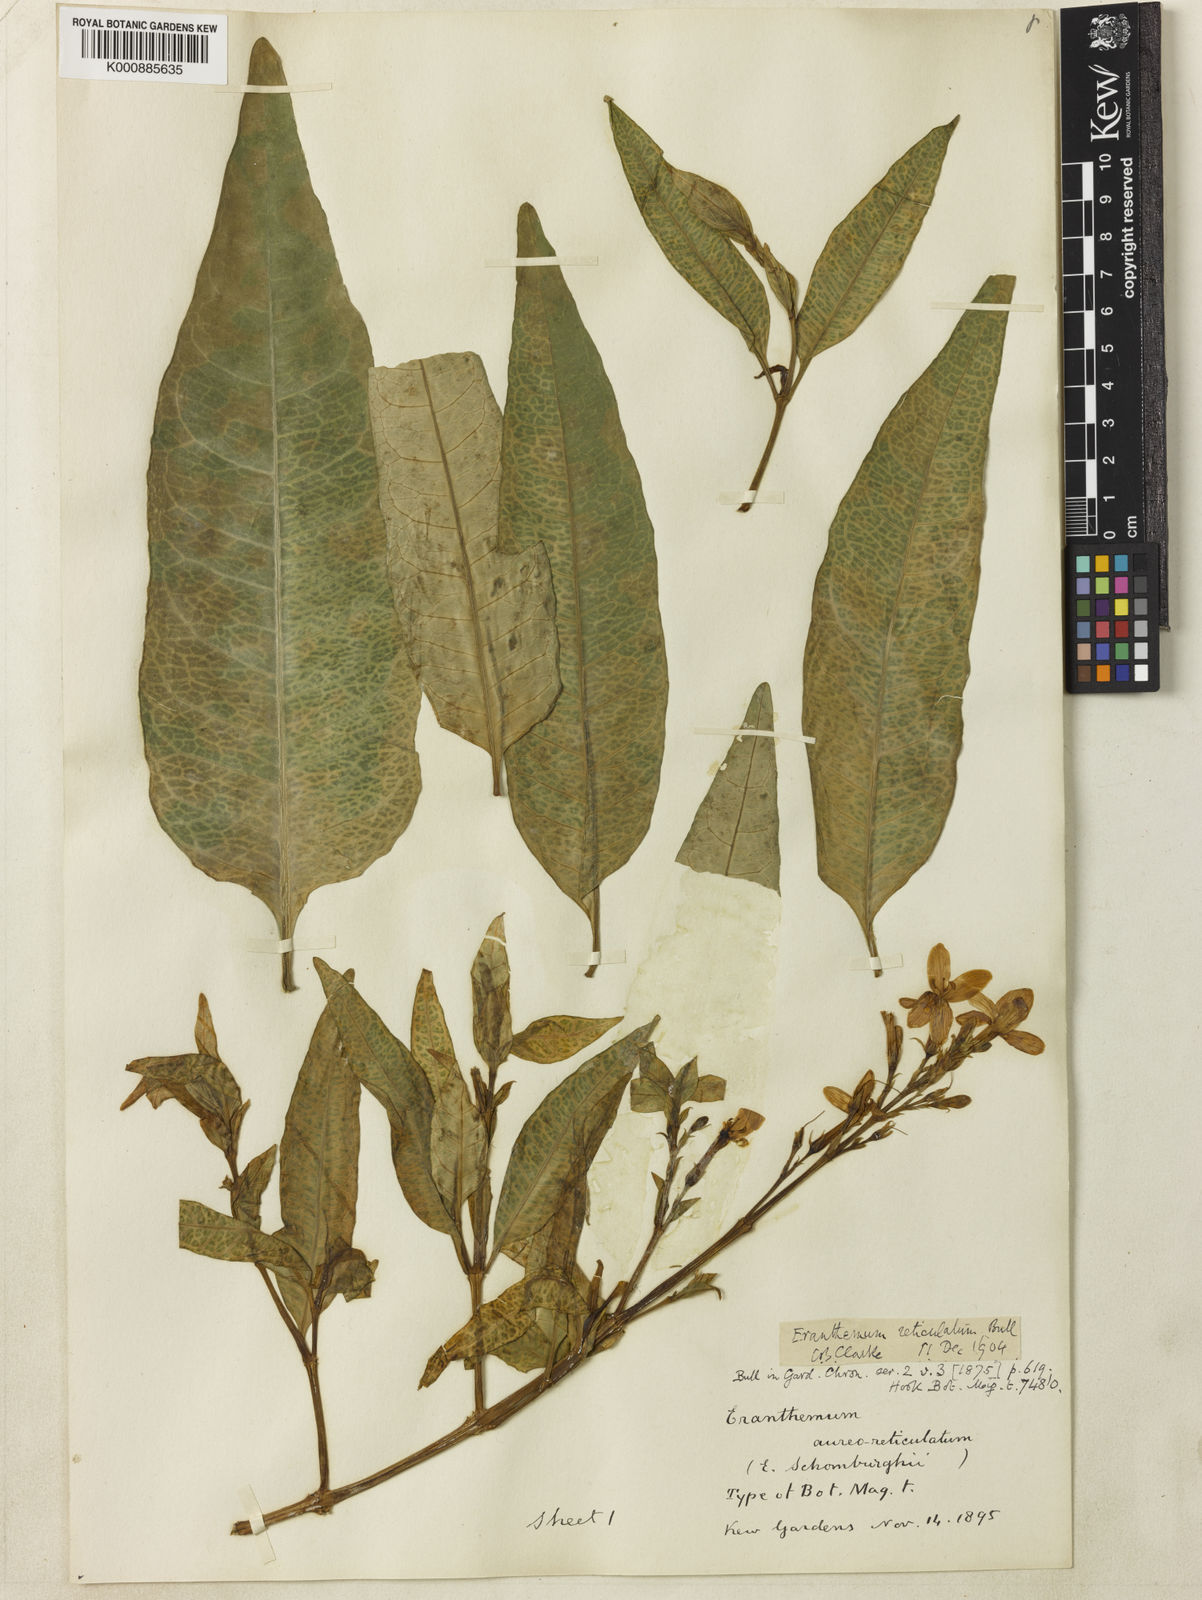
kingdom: Plantae
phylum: Tracheophyta
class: Magnoliopsida
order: Lamiales
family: Acanthaceae
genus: Pseuderanthemum
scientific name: Pseuderanthemum
